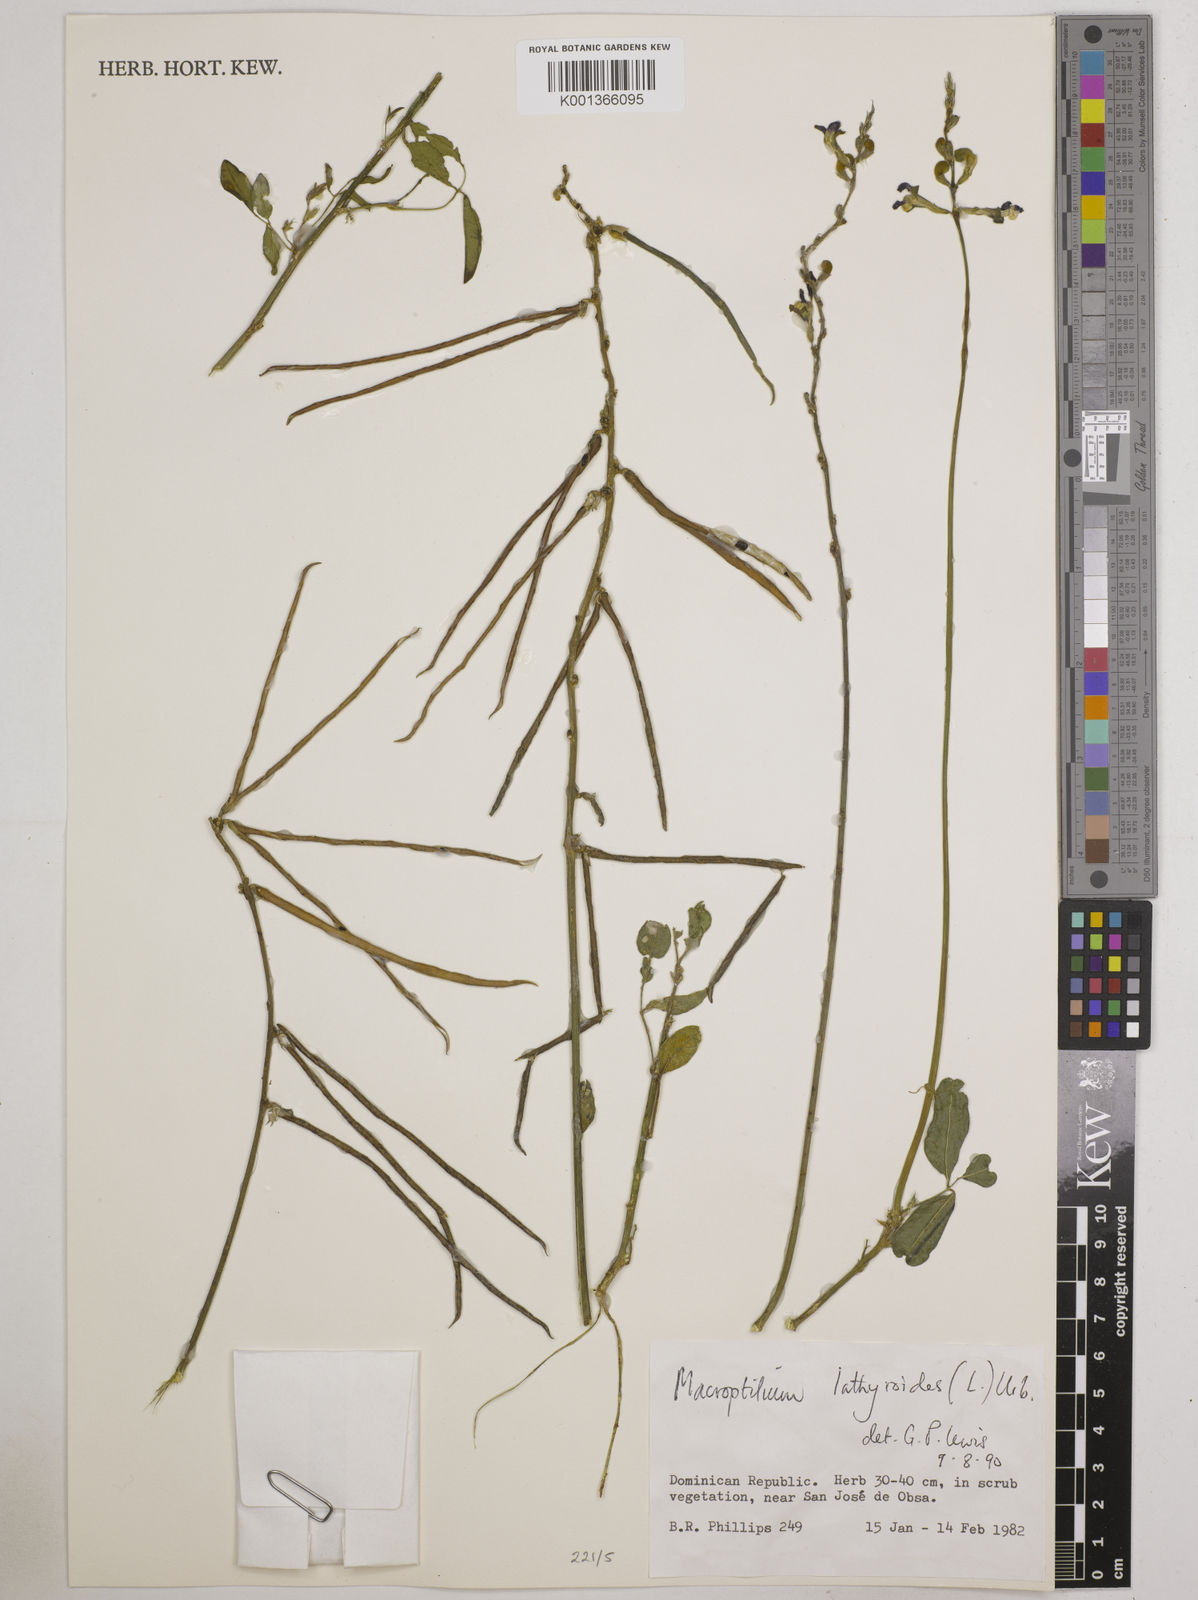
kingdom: Plantae
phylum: Tracheophyta
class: Magnoliopsida
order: Fabales
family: Fabaceae
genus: Macroptilium
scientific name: Macroptilium lathyroides
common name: Wild bushbean
